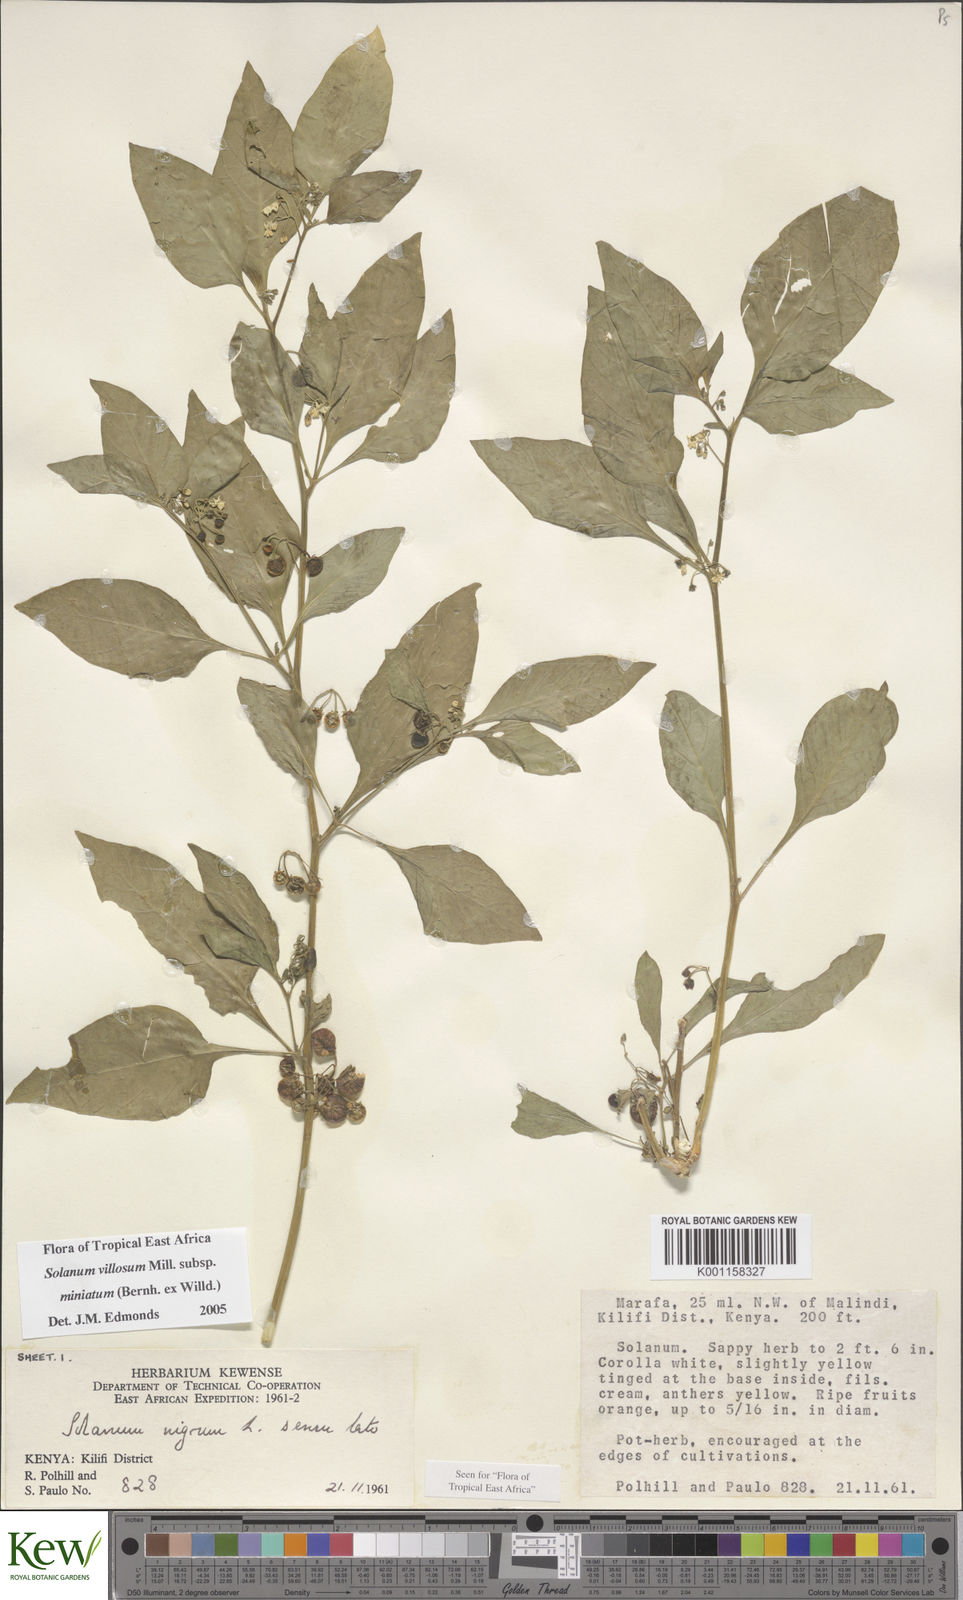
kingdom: Plantae
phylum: Tracheophyta
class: Magnoliopsida
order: Solanales
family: Solanaceae
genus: Solanum
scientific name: Solanum villosum
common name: Red nightshade
